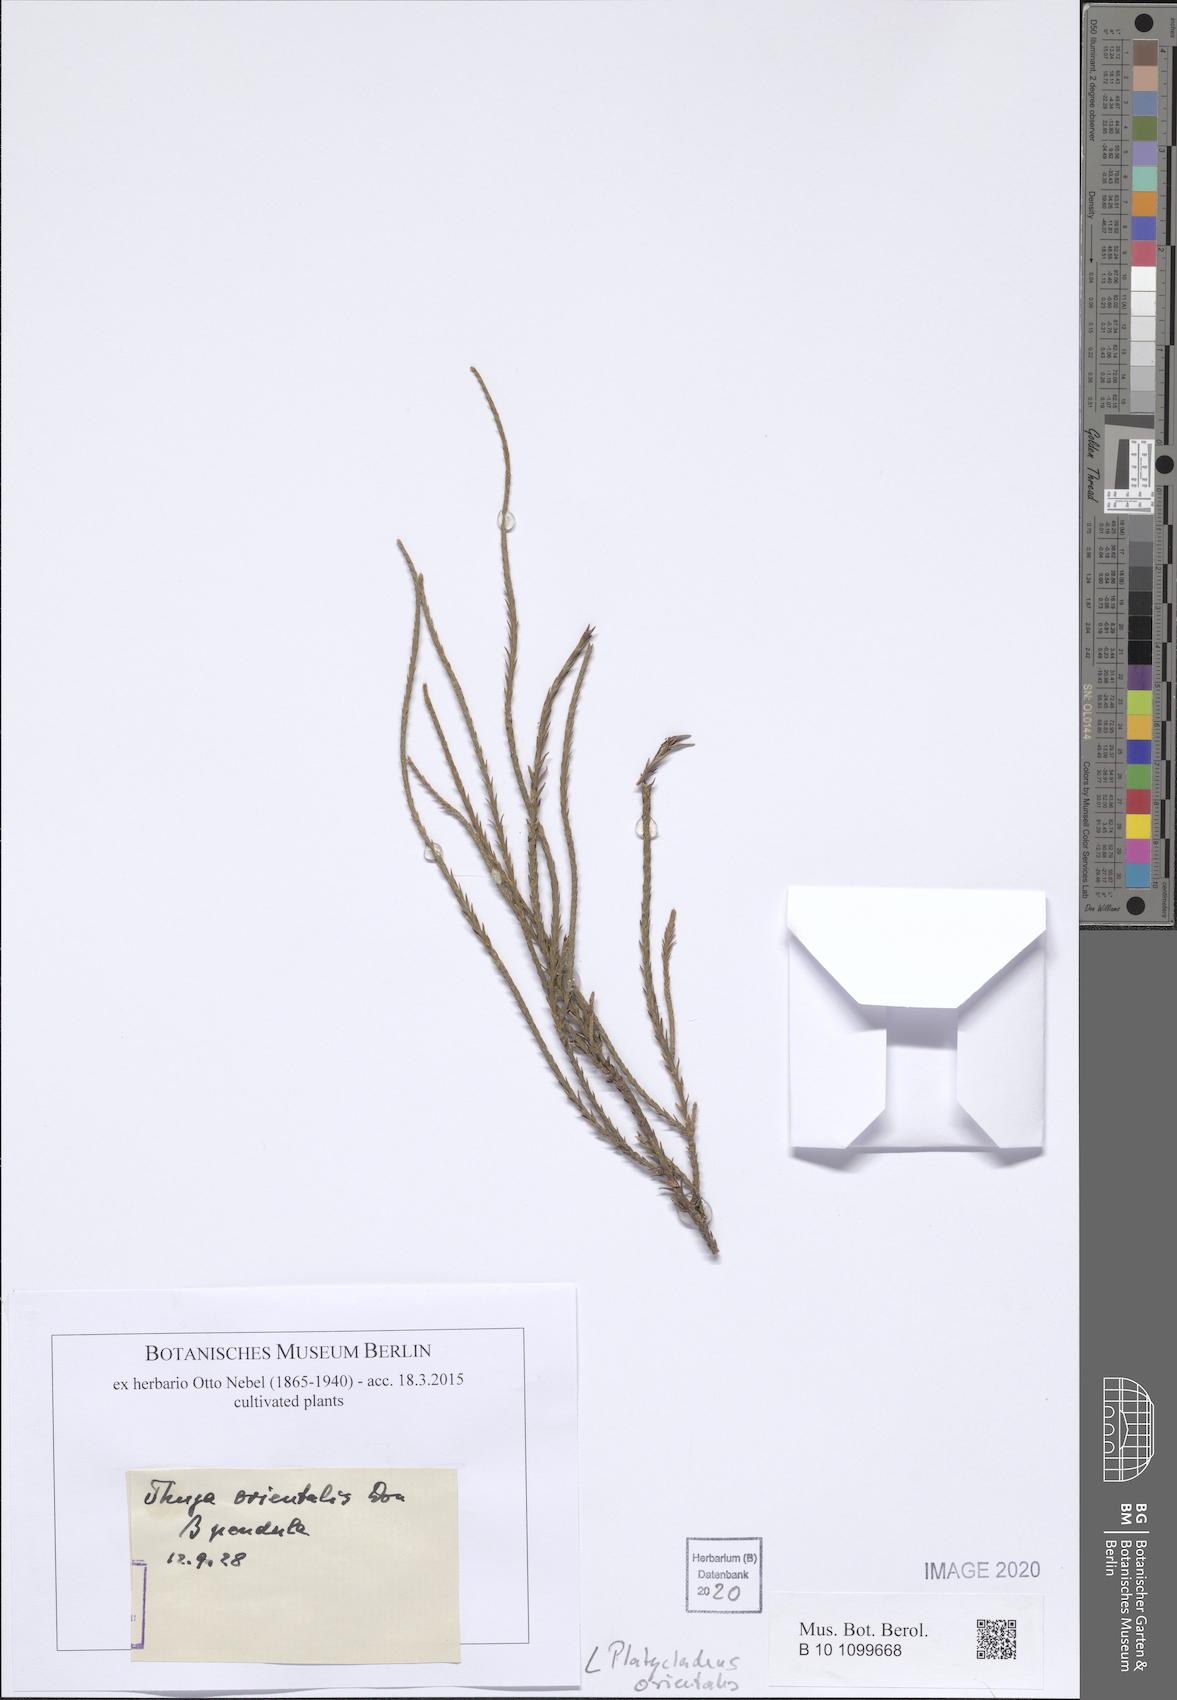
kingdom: Plantae
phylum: Tracheophyta
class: Pinopsida
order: Pinales
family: Cupressaceae
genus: Platycladus
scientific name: Platycladus orientalis
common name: Chinese thuja
